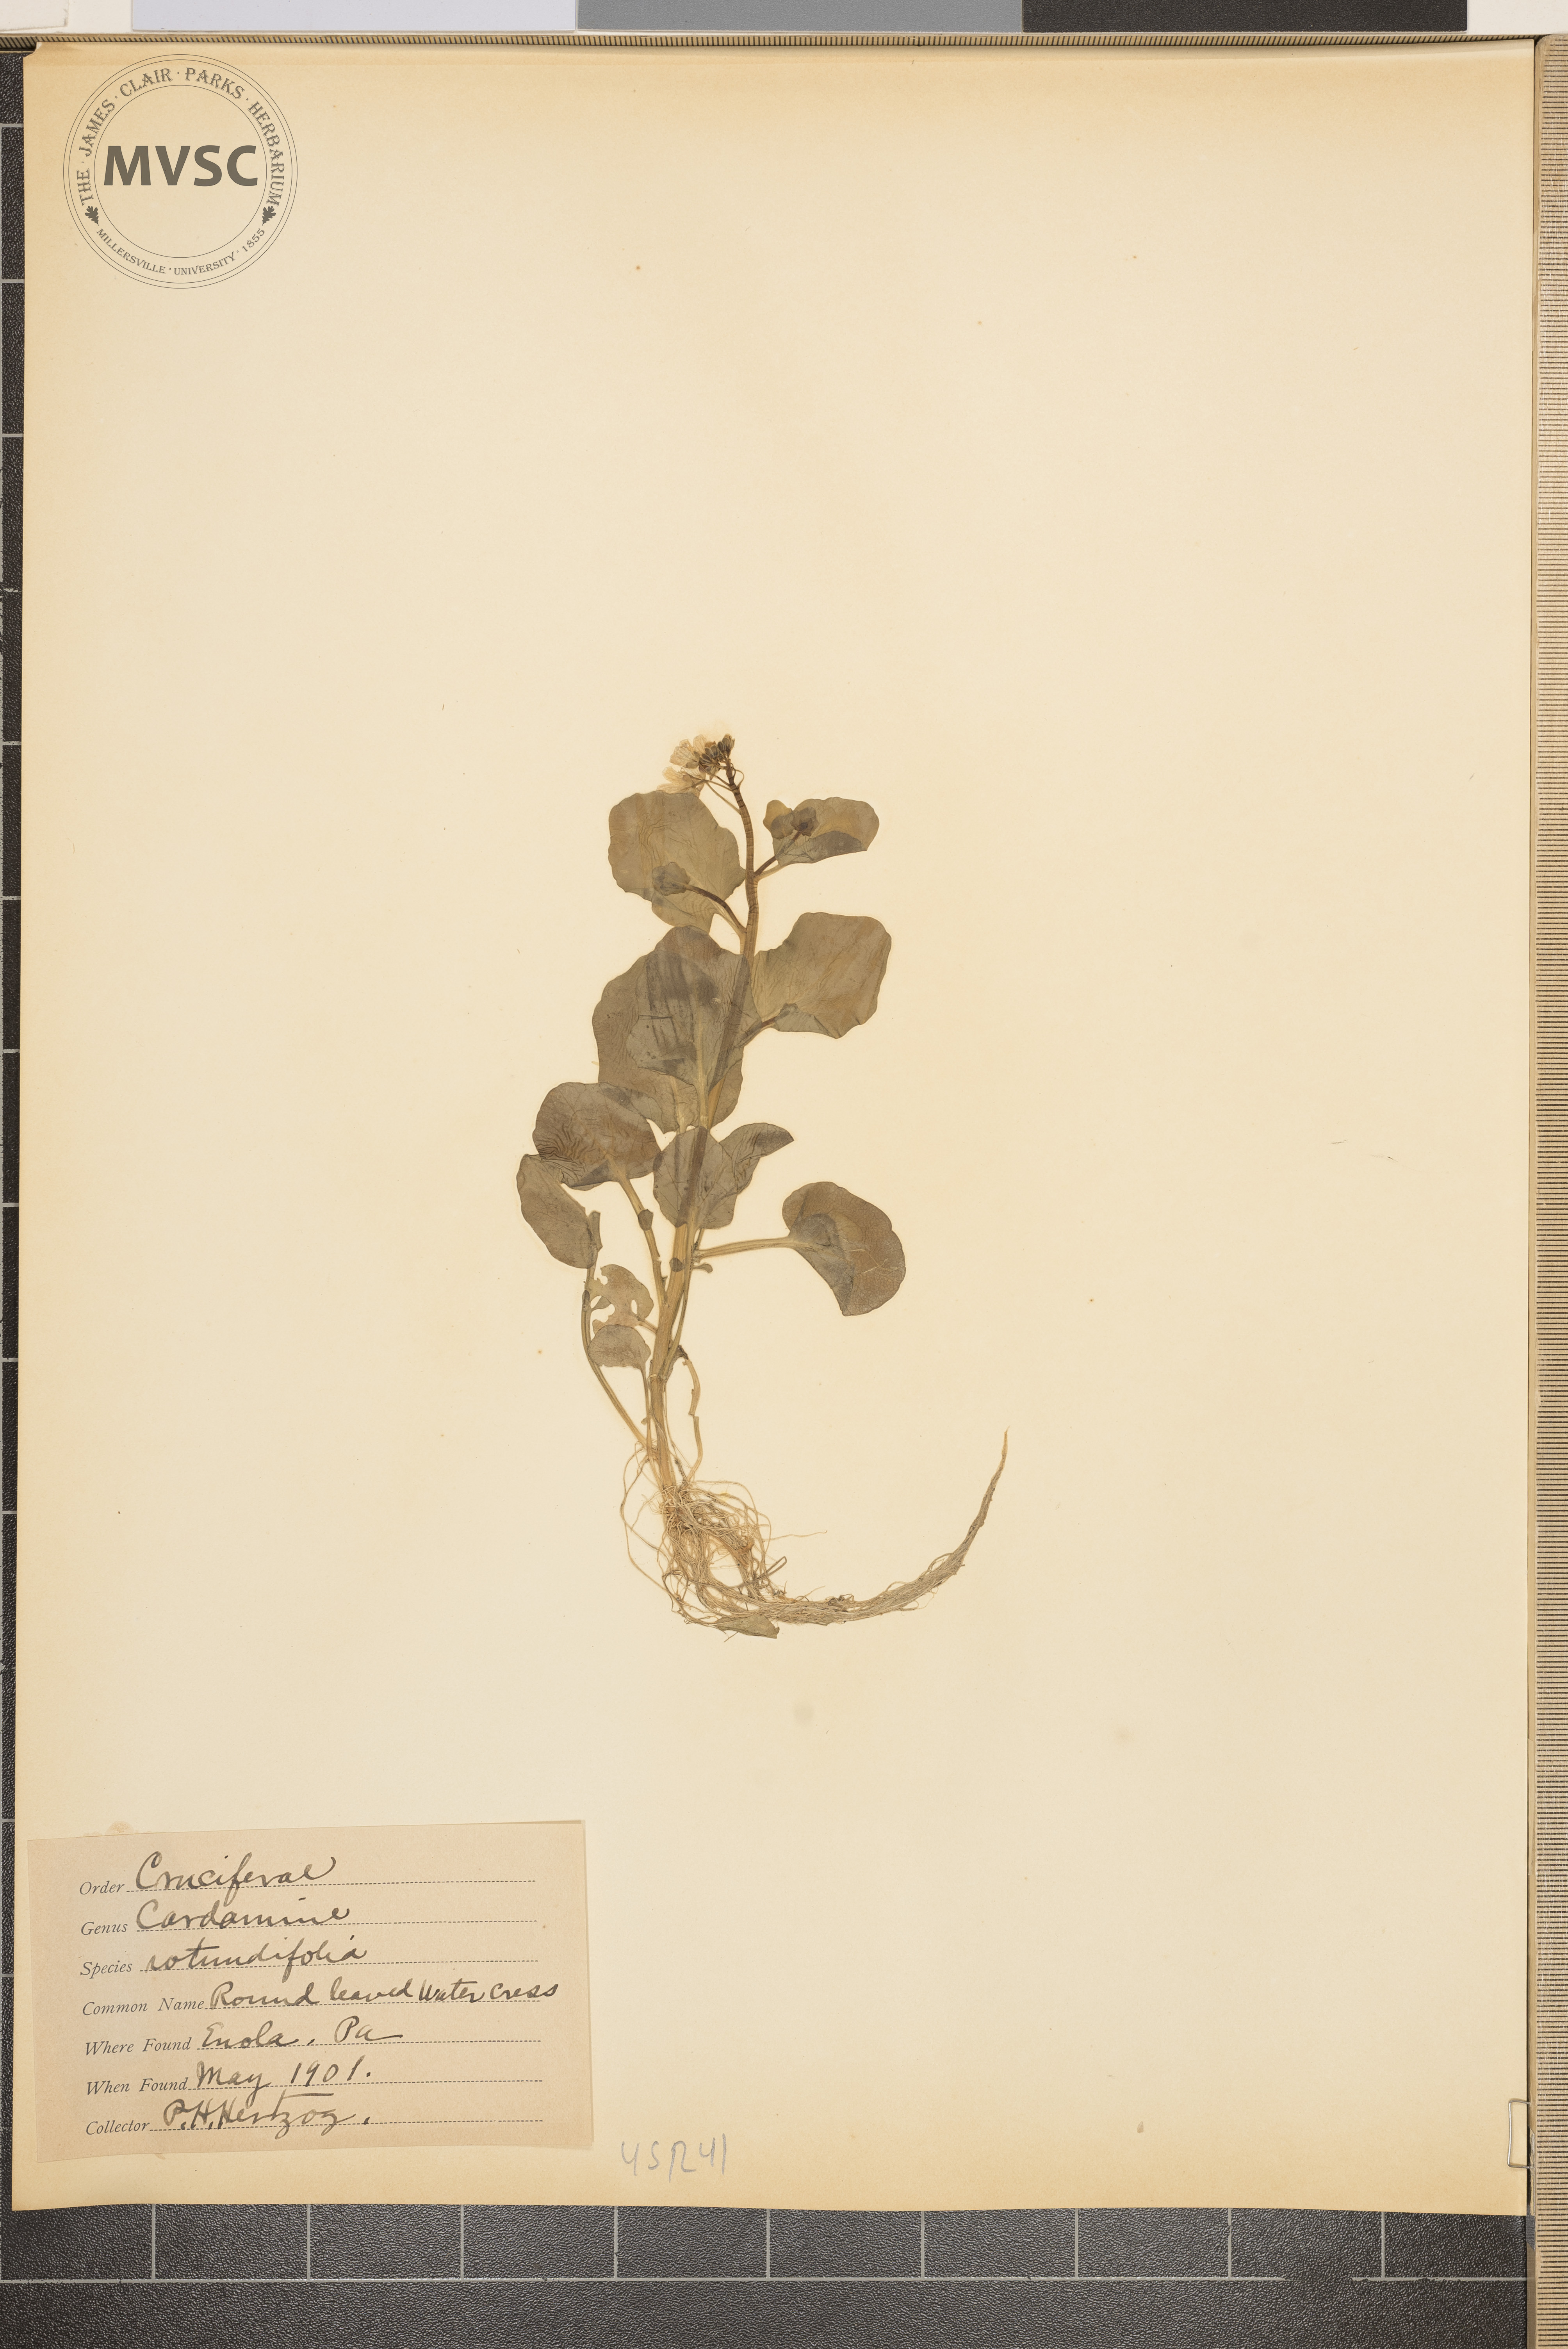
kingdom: Plantae
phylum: Tracheophyta
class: Magnoliopsida
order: Brassicales
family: Brassicaceae
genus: Cardamine
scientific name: Cardamine rotundifolia
